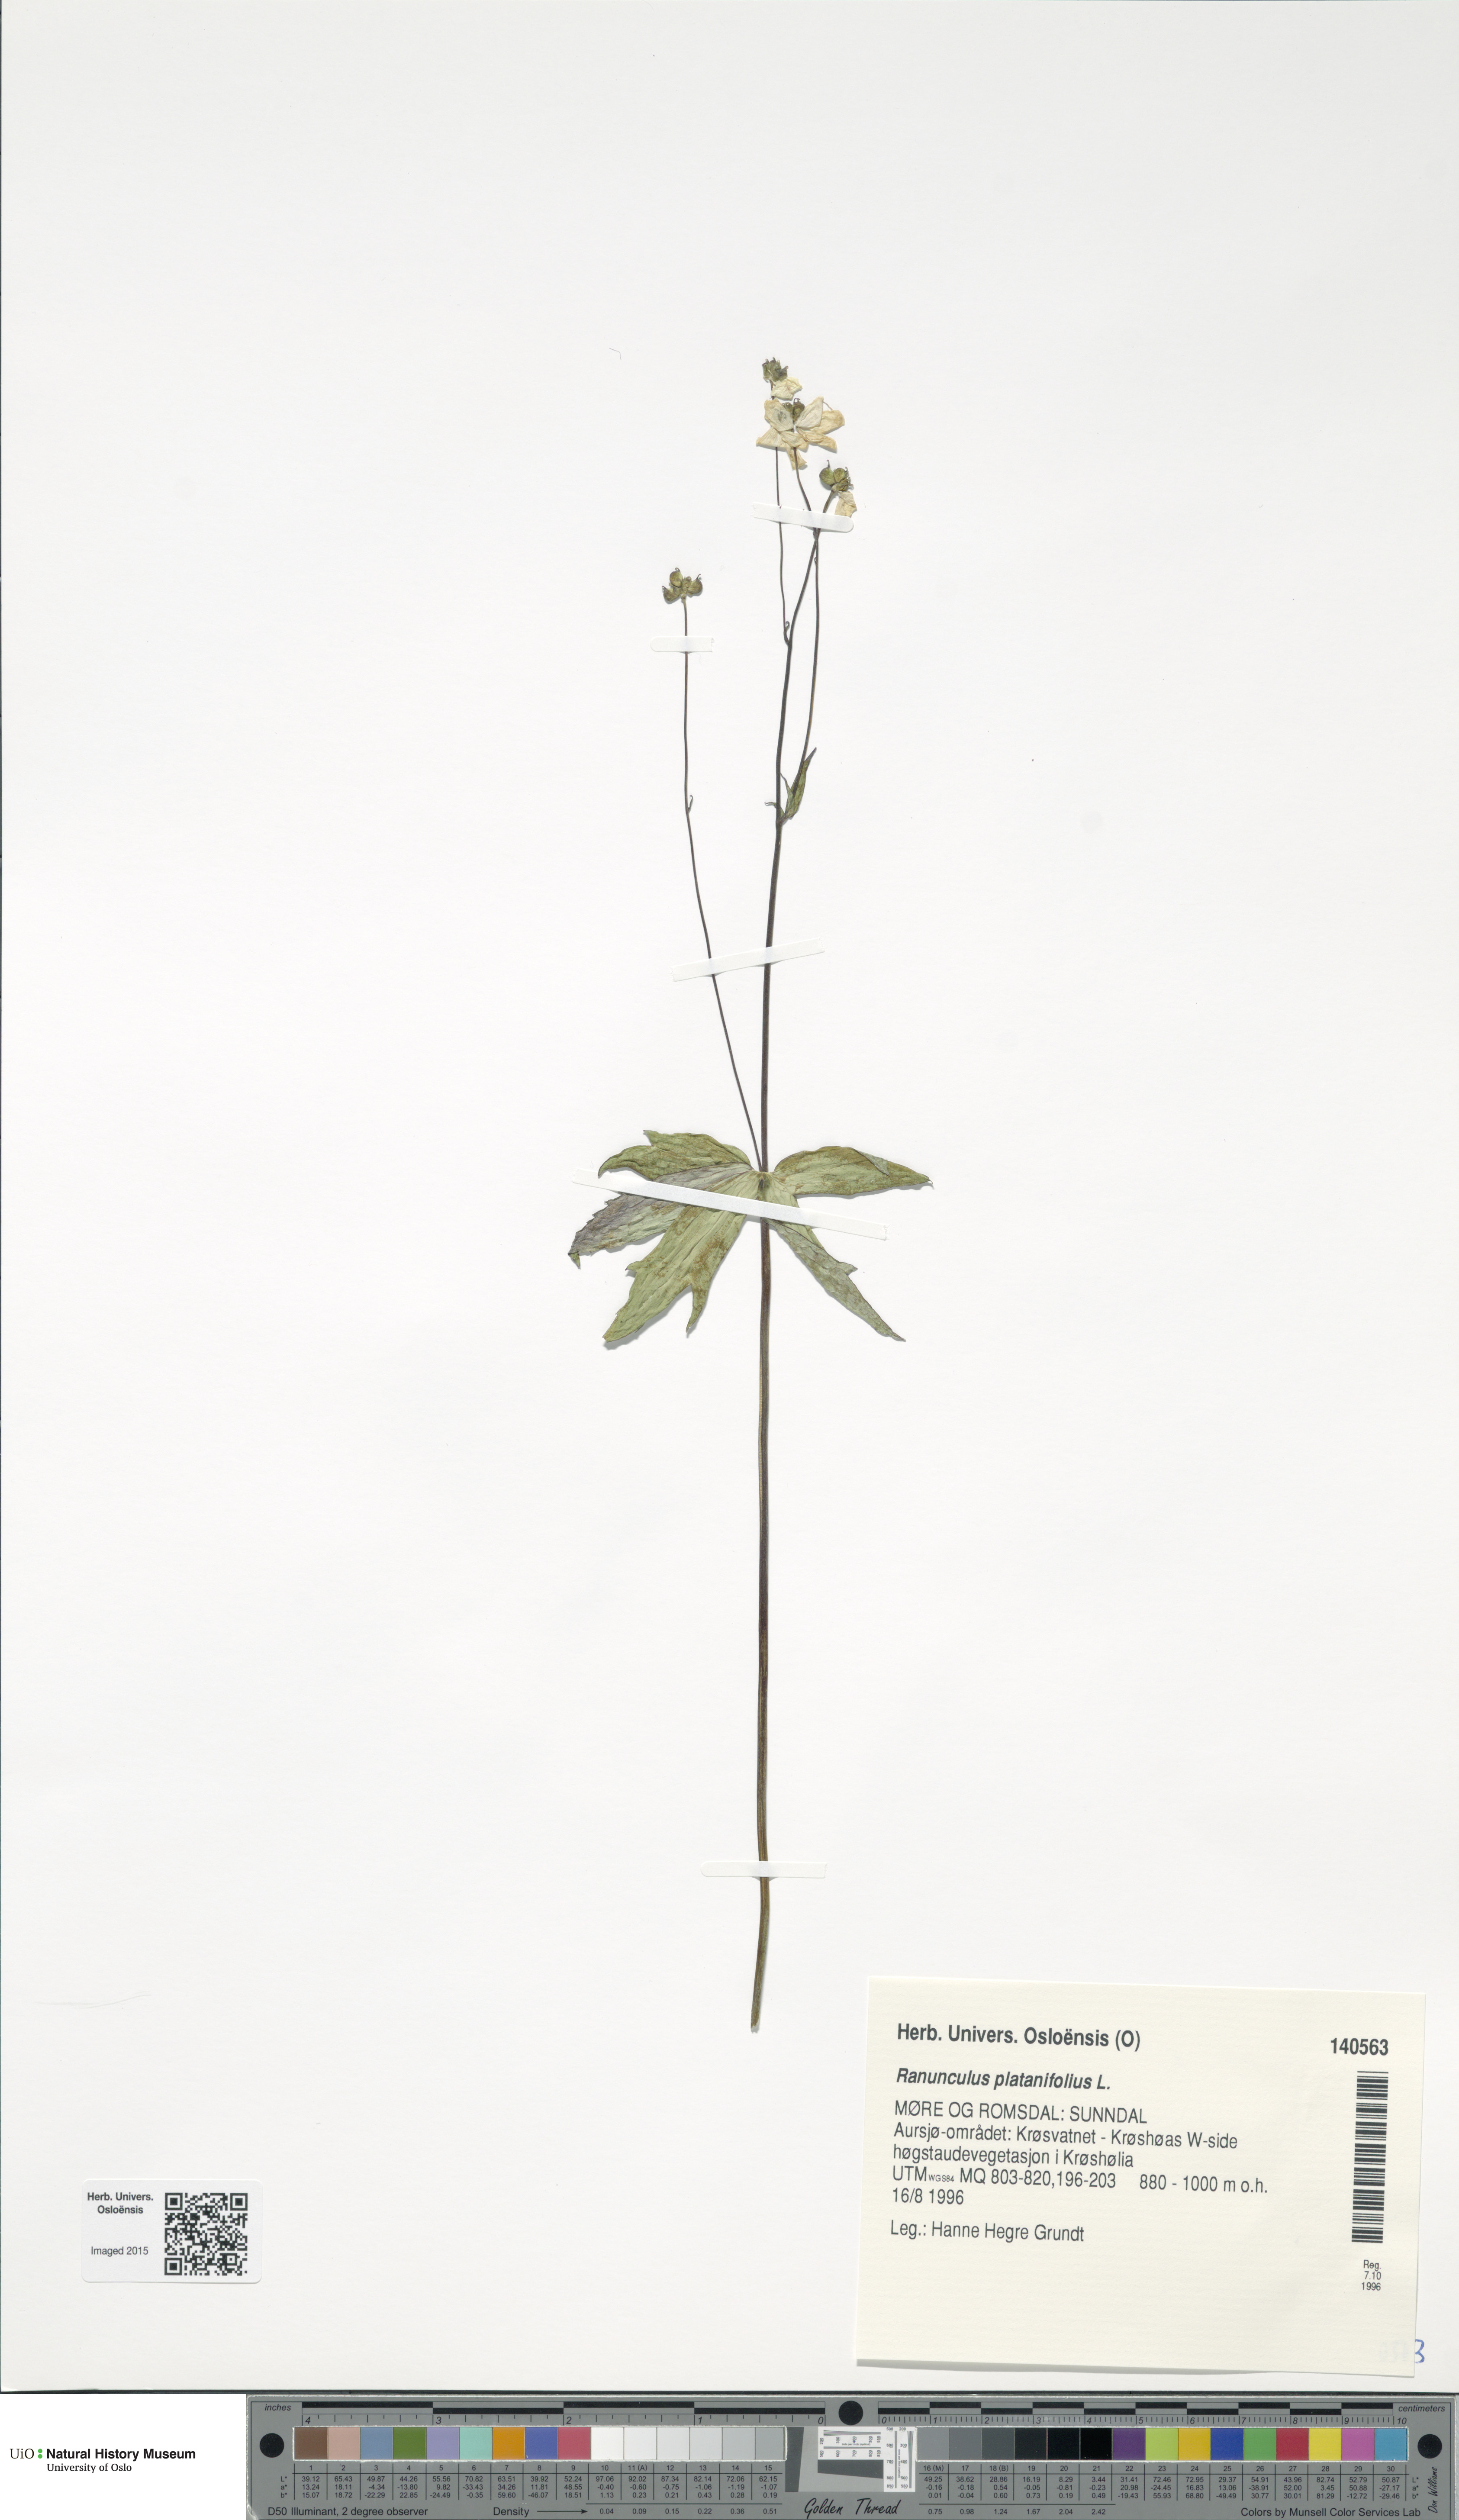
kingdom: Plantae
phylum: Tracheophyta
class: Magnoliopsida
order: Ranunculales
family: Ranunculaceae
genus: Ranunculus
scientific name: Ranunculus platanifolius
